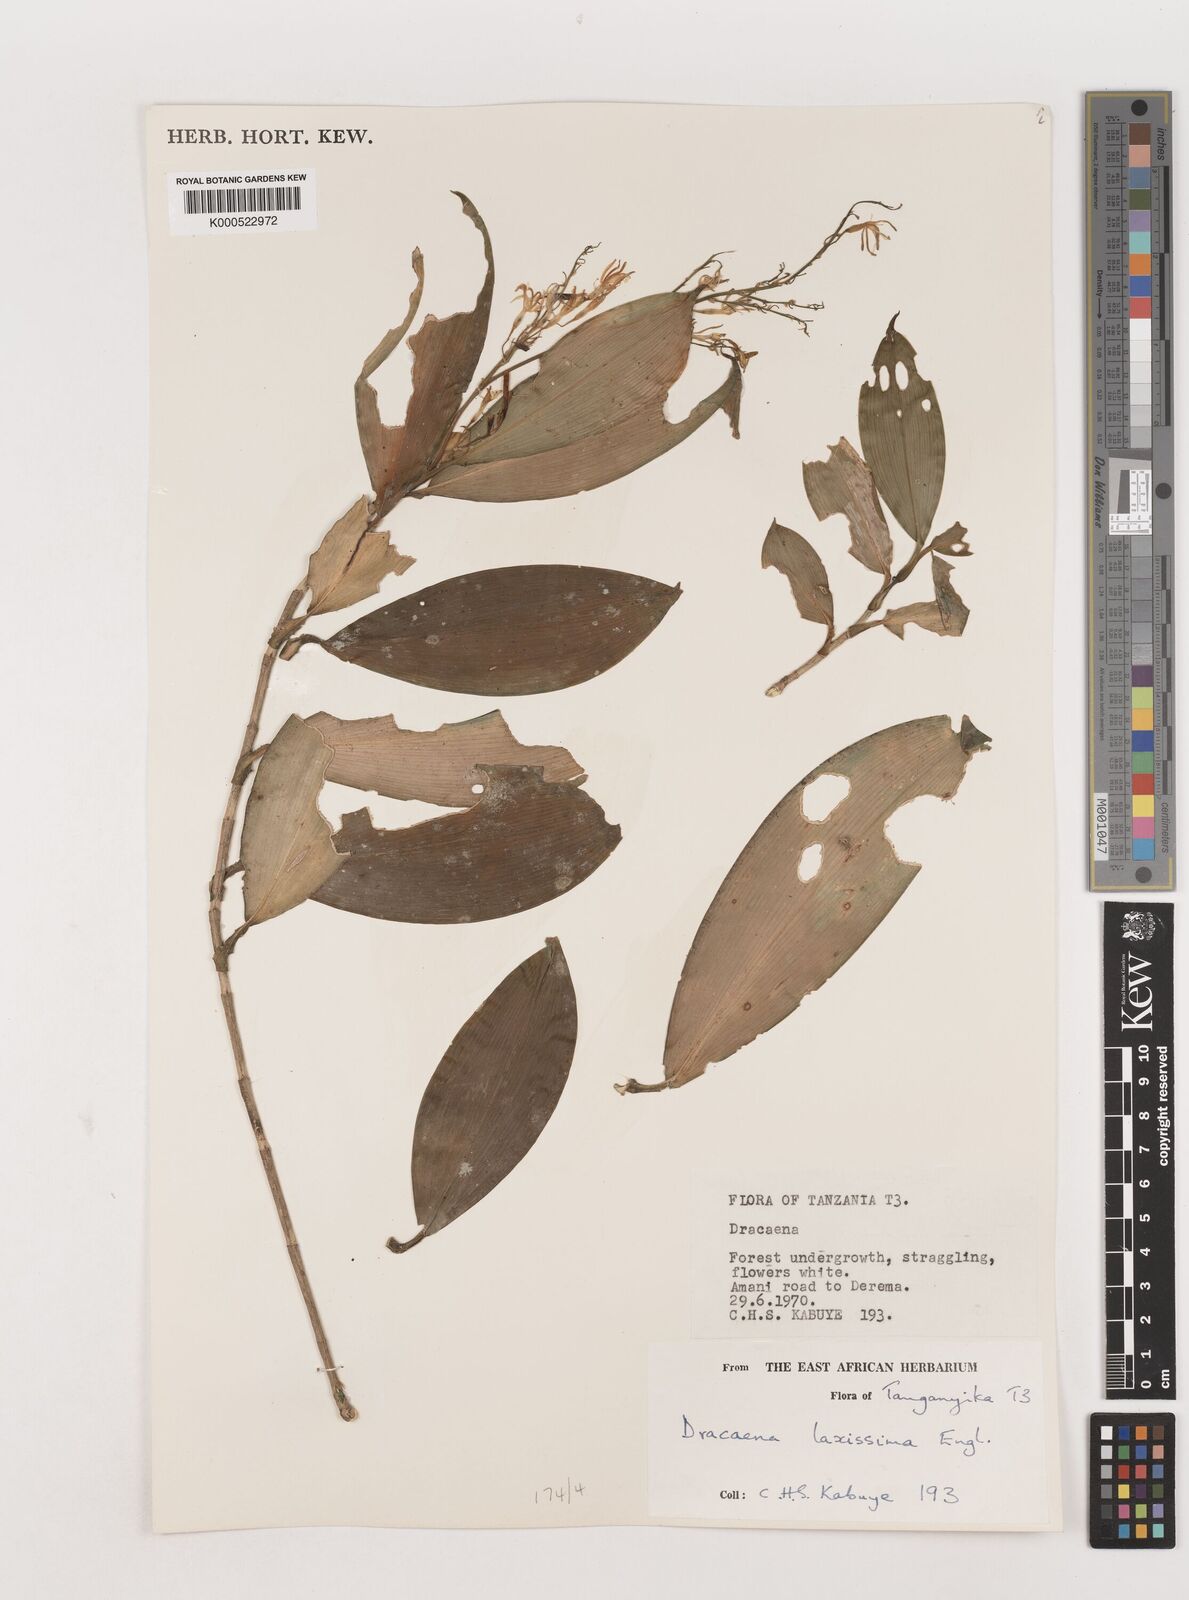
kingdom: Plantae
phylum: Tracheophyta
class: Liliopsida
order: Asparagales
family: Asparagaceae
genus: Dracaena
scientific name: Dracaena laxissima
